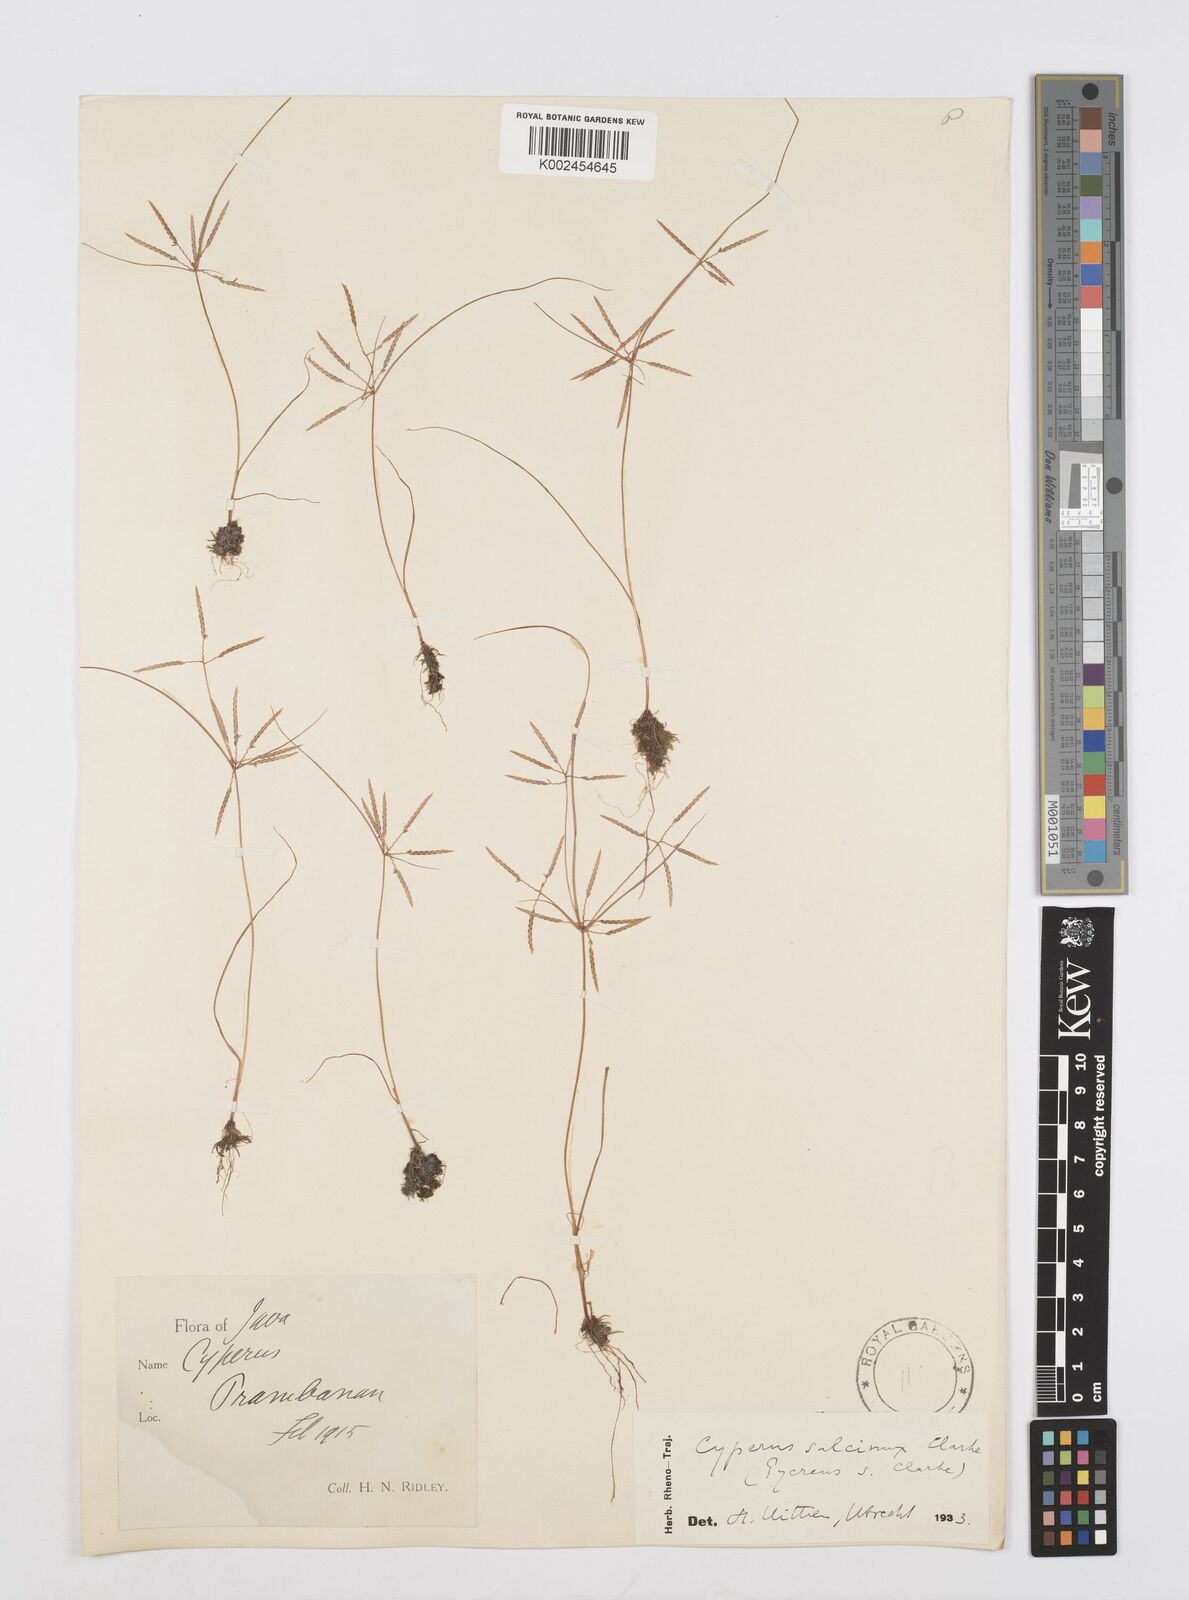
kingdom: Plantae
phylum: Tracheophyta
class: Liliopsida
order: Poales
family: Cyperaceae
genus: Cyperus
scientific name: Cyperus sulcinux
